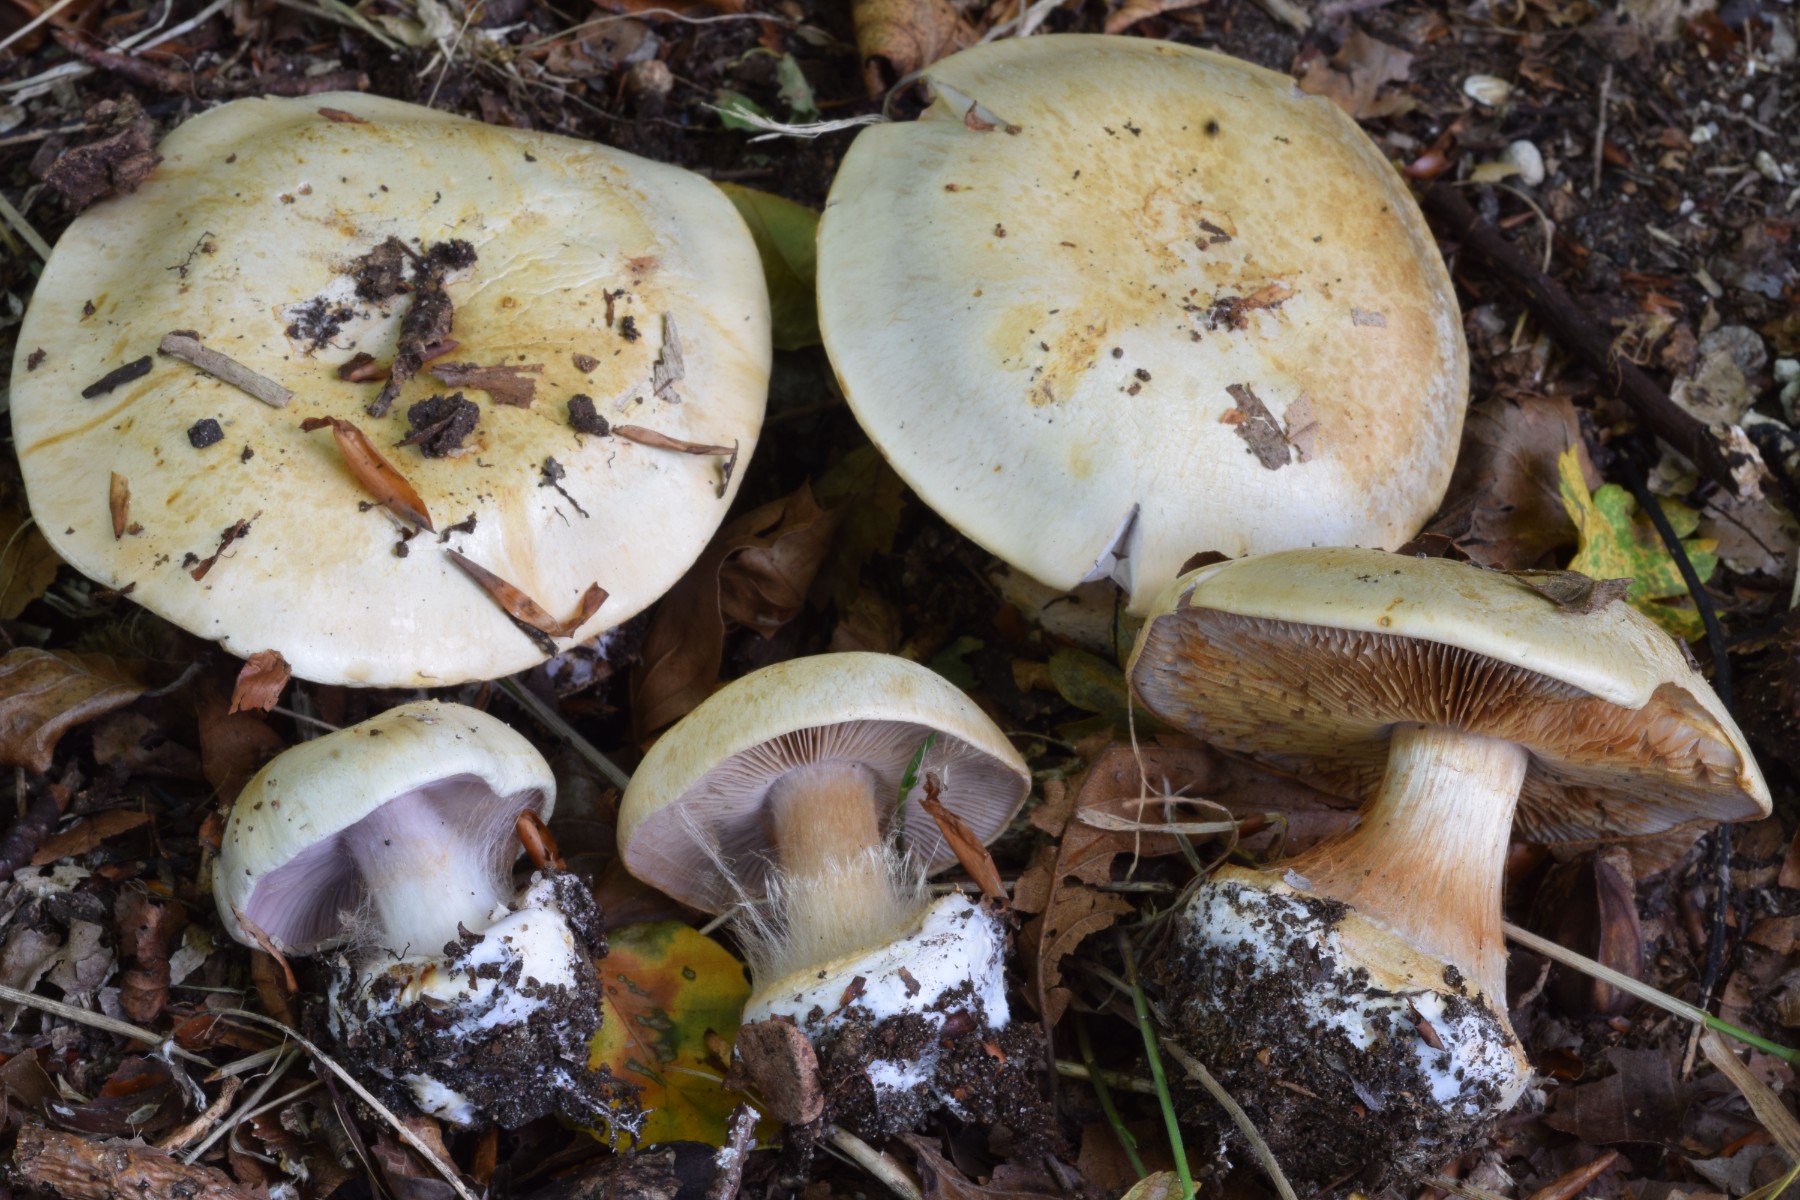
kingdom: Fungi
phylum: Basidiomycota
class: Agaricomycetes
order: Agaricales
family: Cortinariaceae
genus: Calonarius
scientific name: Calonarius lilacinovelatus
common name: violetknoldet slørhat
